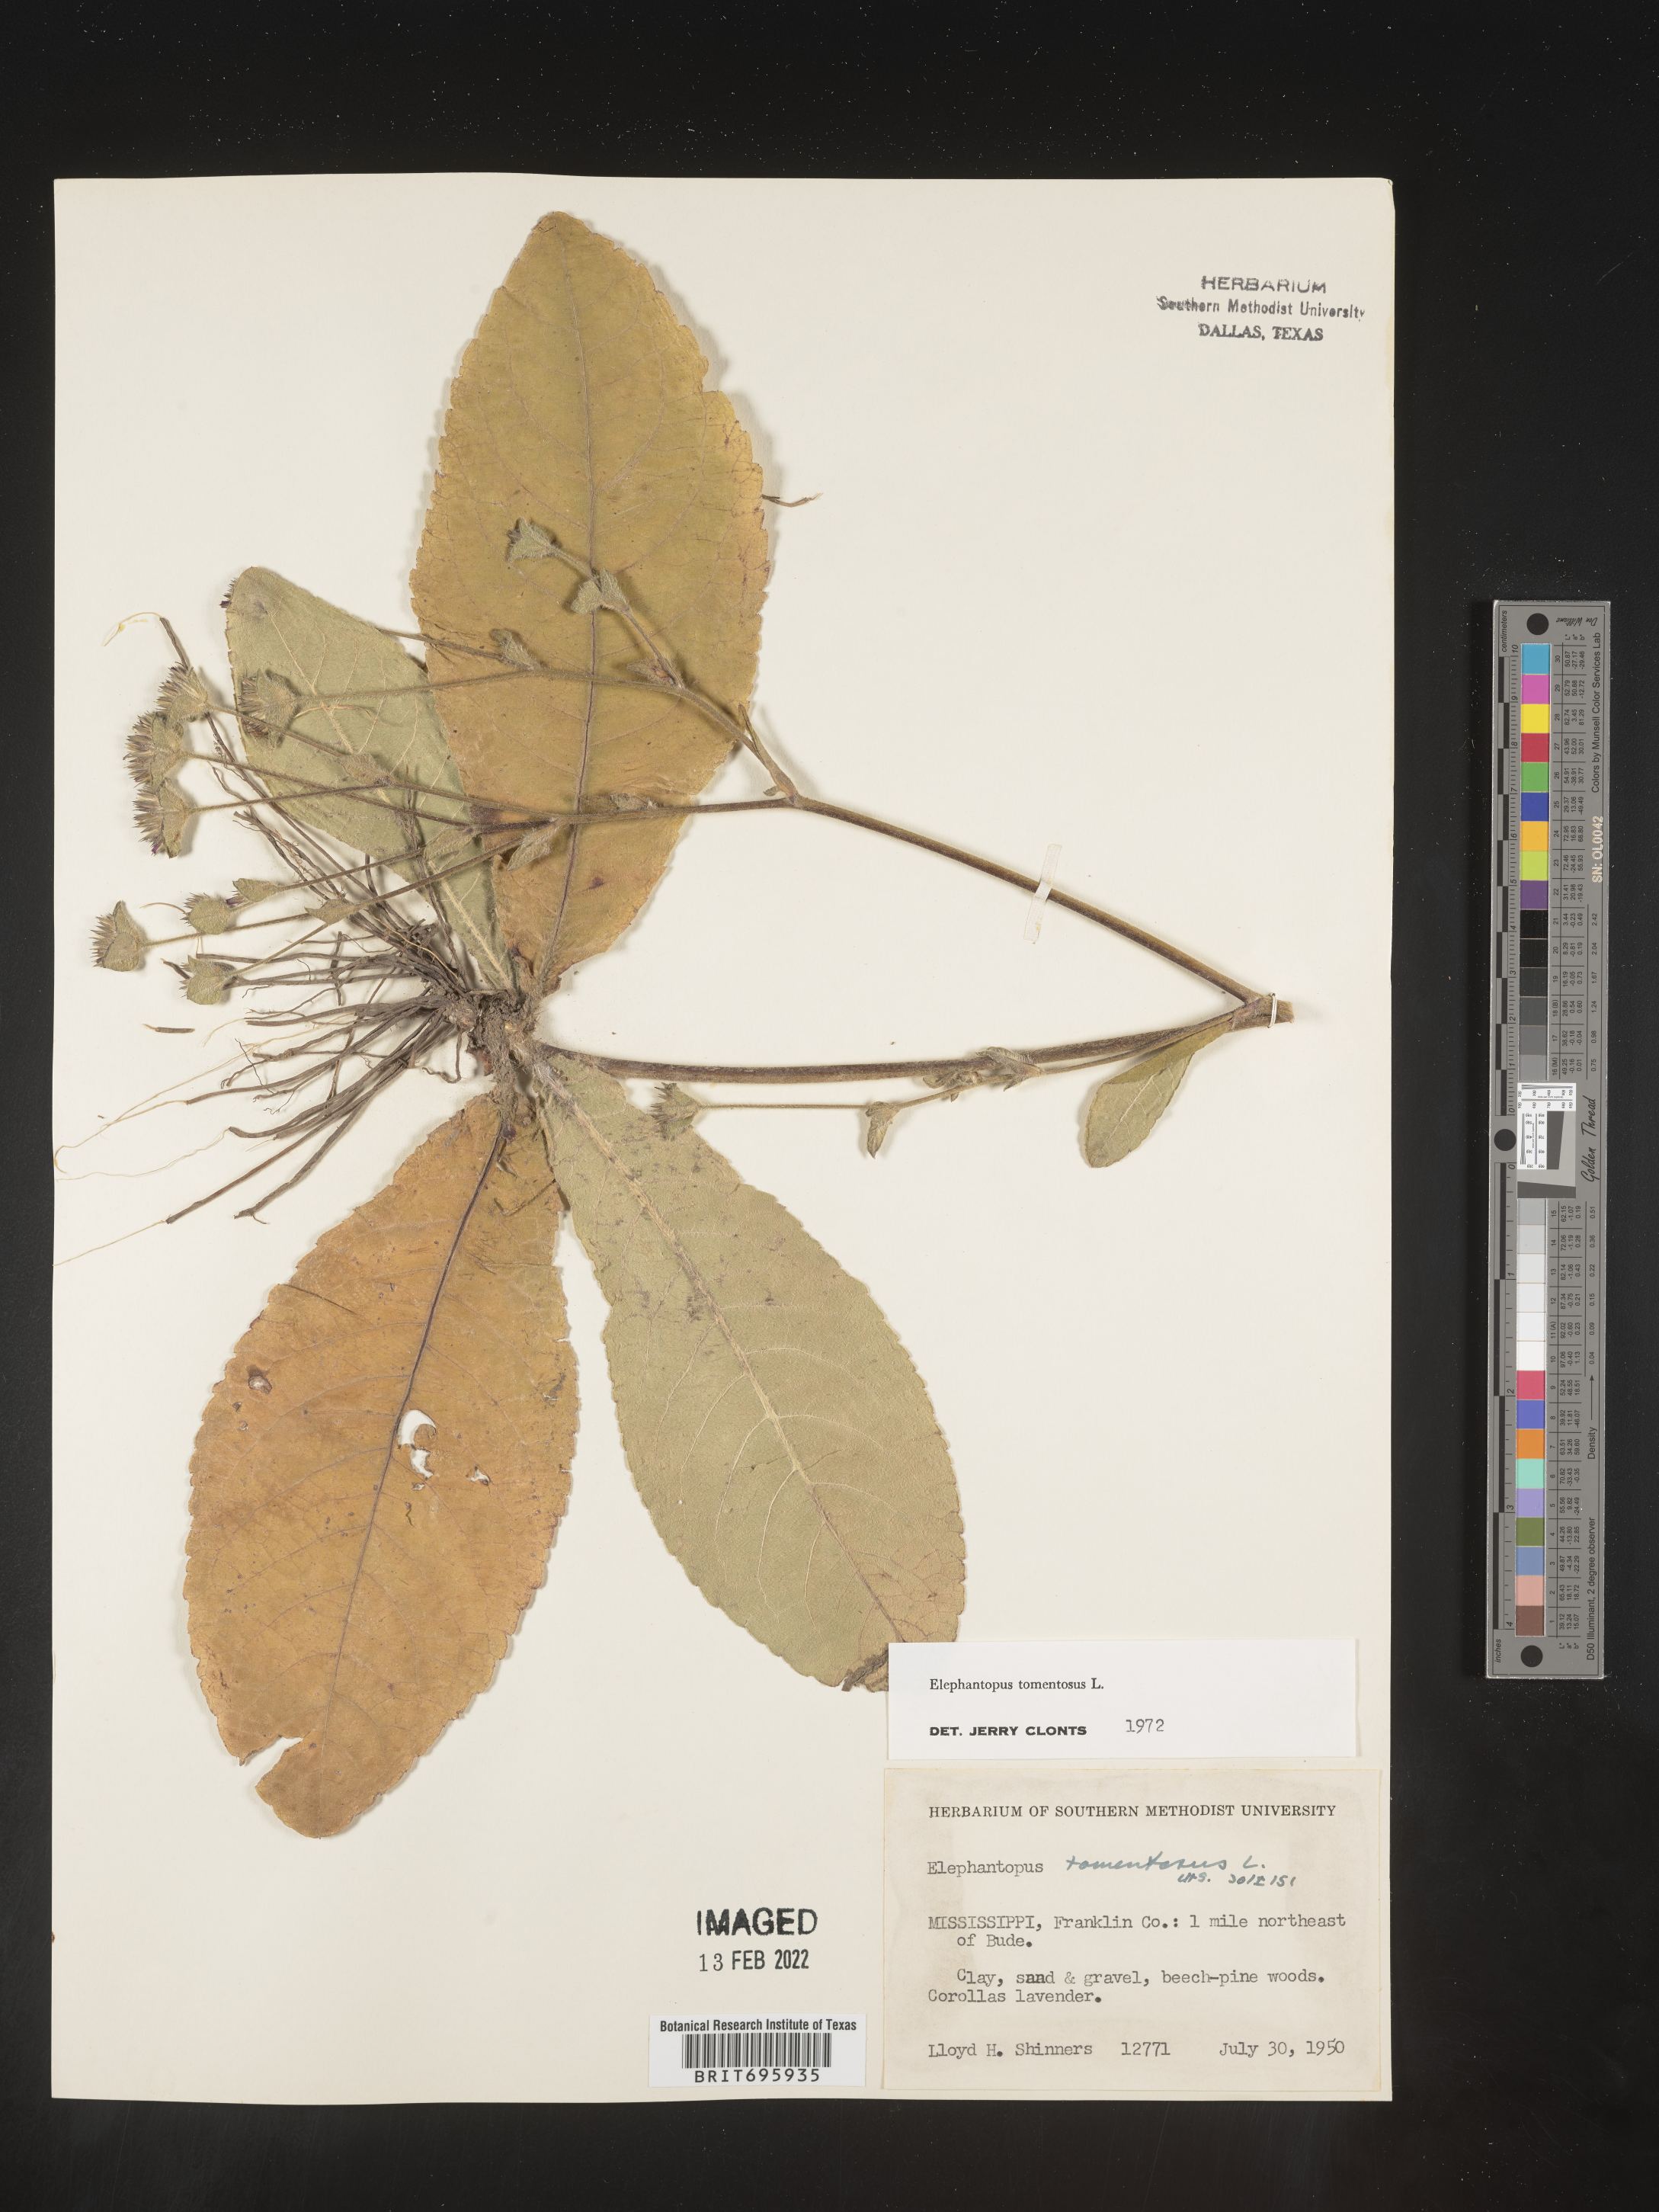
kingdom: Plantae
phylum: Tracheophyta
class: Magnoliopsida
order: Asterales
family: Asteraceae
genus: Elephantopus
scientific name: Elephantopus tomentosus
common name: Tobacco-weed
